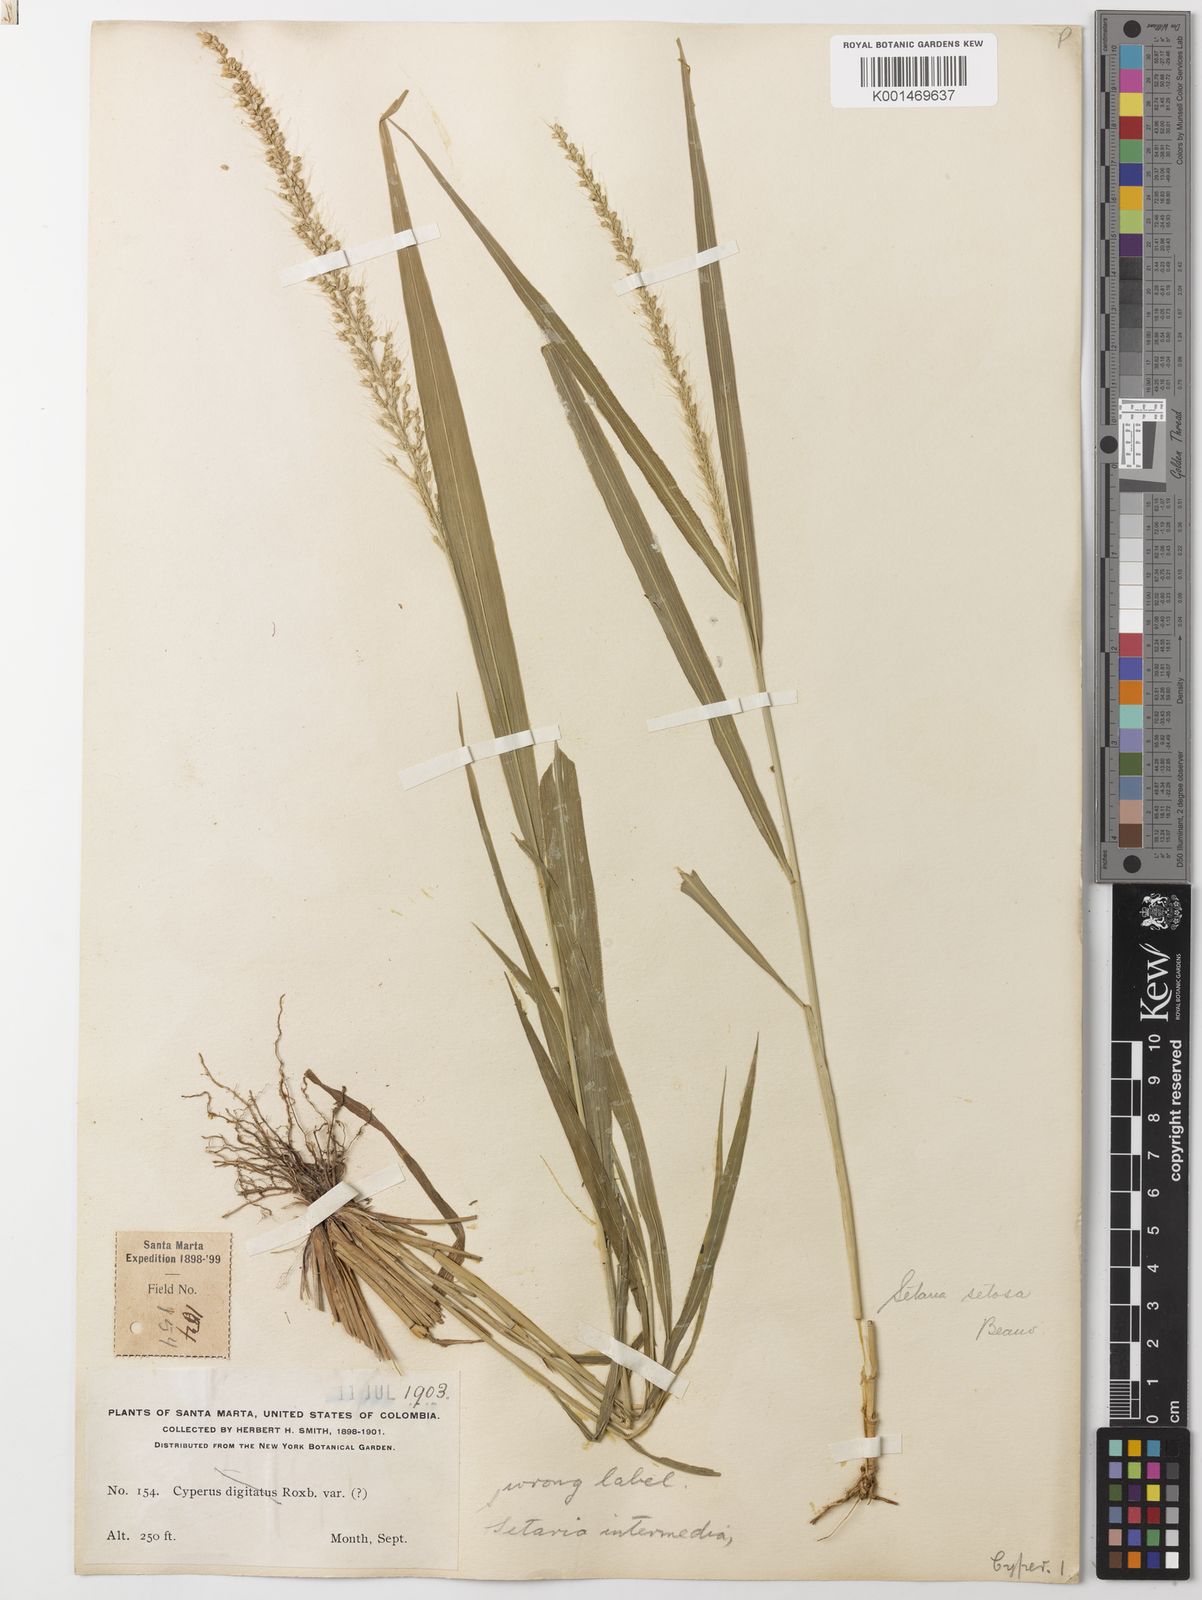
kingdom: Plantae
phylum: Tracheophyta
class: Liliopsida
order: Poales
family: Poaceae
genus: Setaria
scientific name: Setaria setosa
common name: West indies bristle grass
